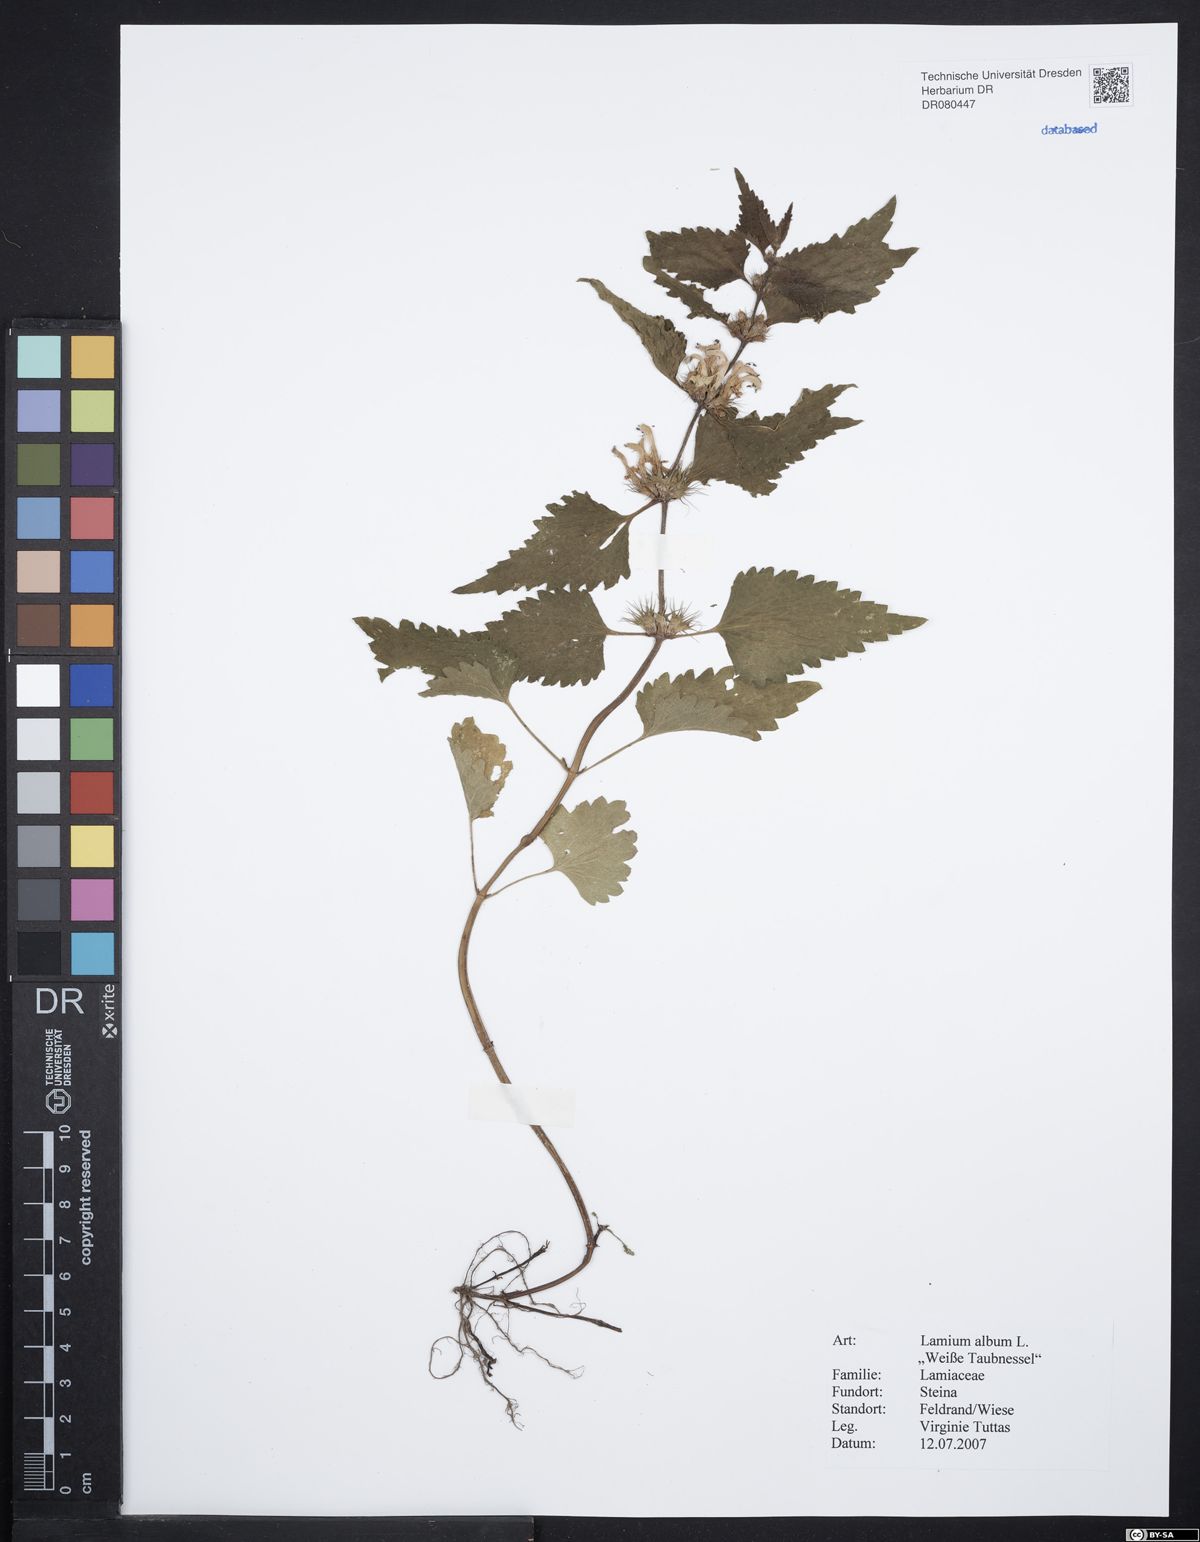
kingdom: Plantae
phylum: Tracheophyta
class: Magnoliopsida
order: Lamiales
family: Lamiaceae
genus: Lamium
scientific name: Lamium album
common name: White dead-nettle
